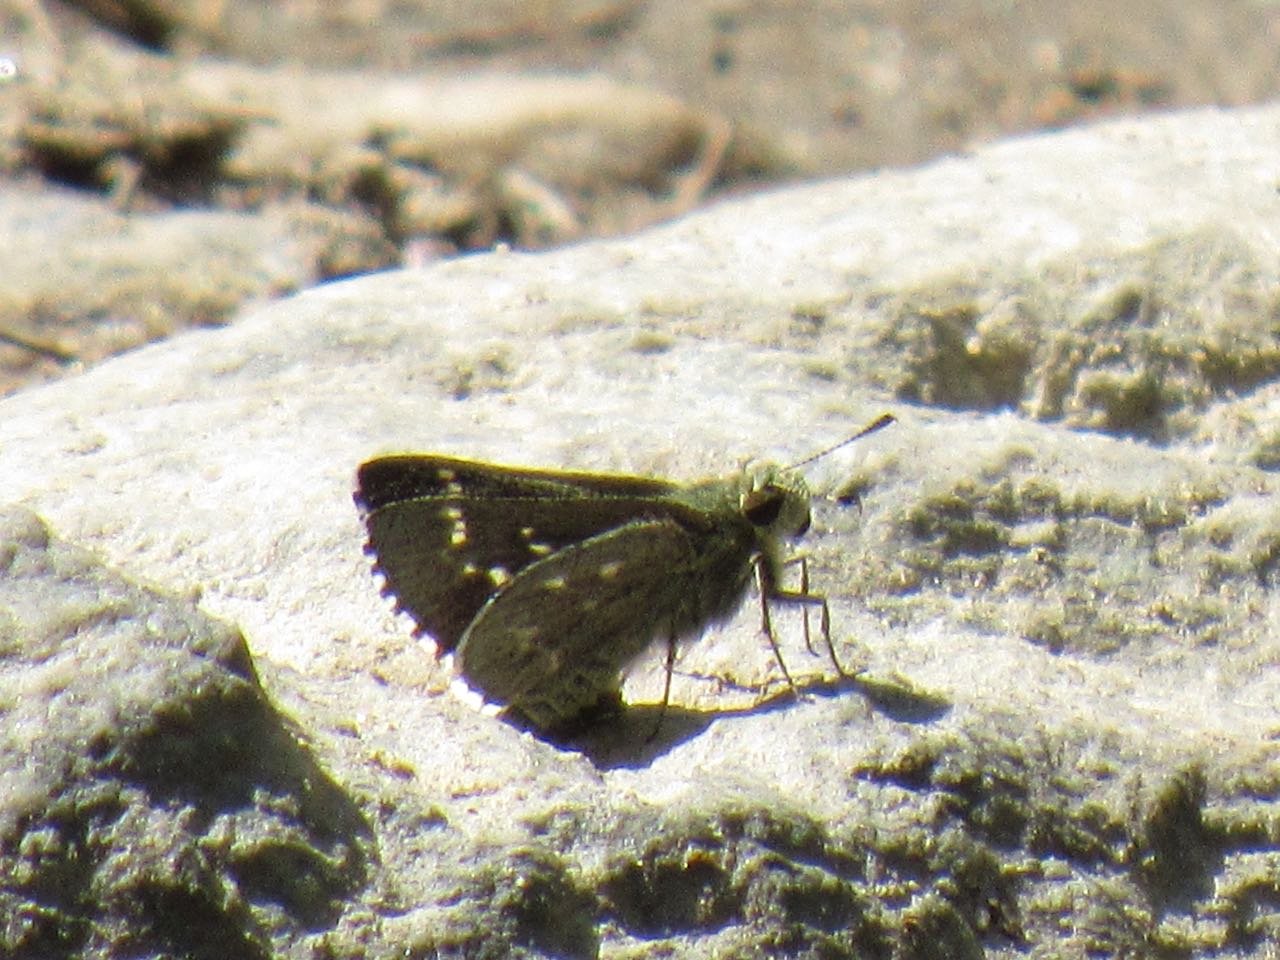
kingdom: Animalia
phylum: Arthropoda
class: Insecta
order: Lepidoptera
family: Hesperiidae
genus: Mastor
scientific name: Mastor hegon
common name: Pepper and Salt Skipper
